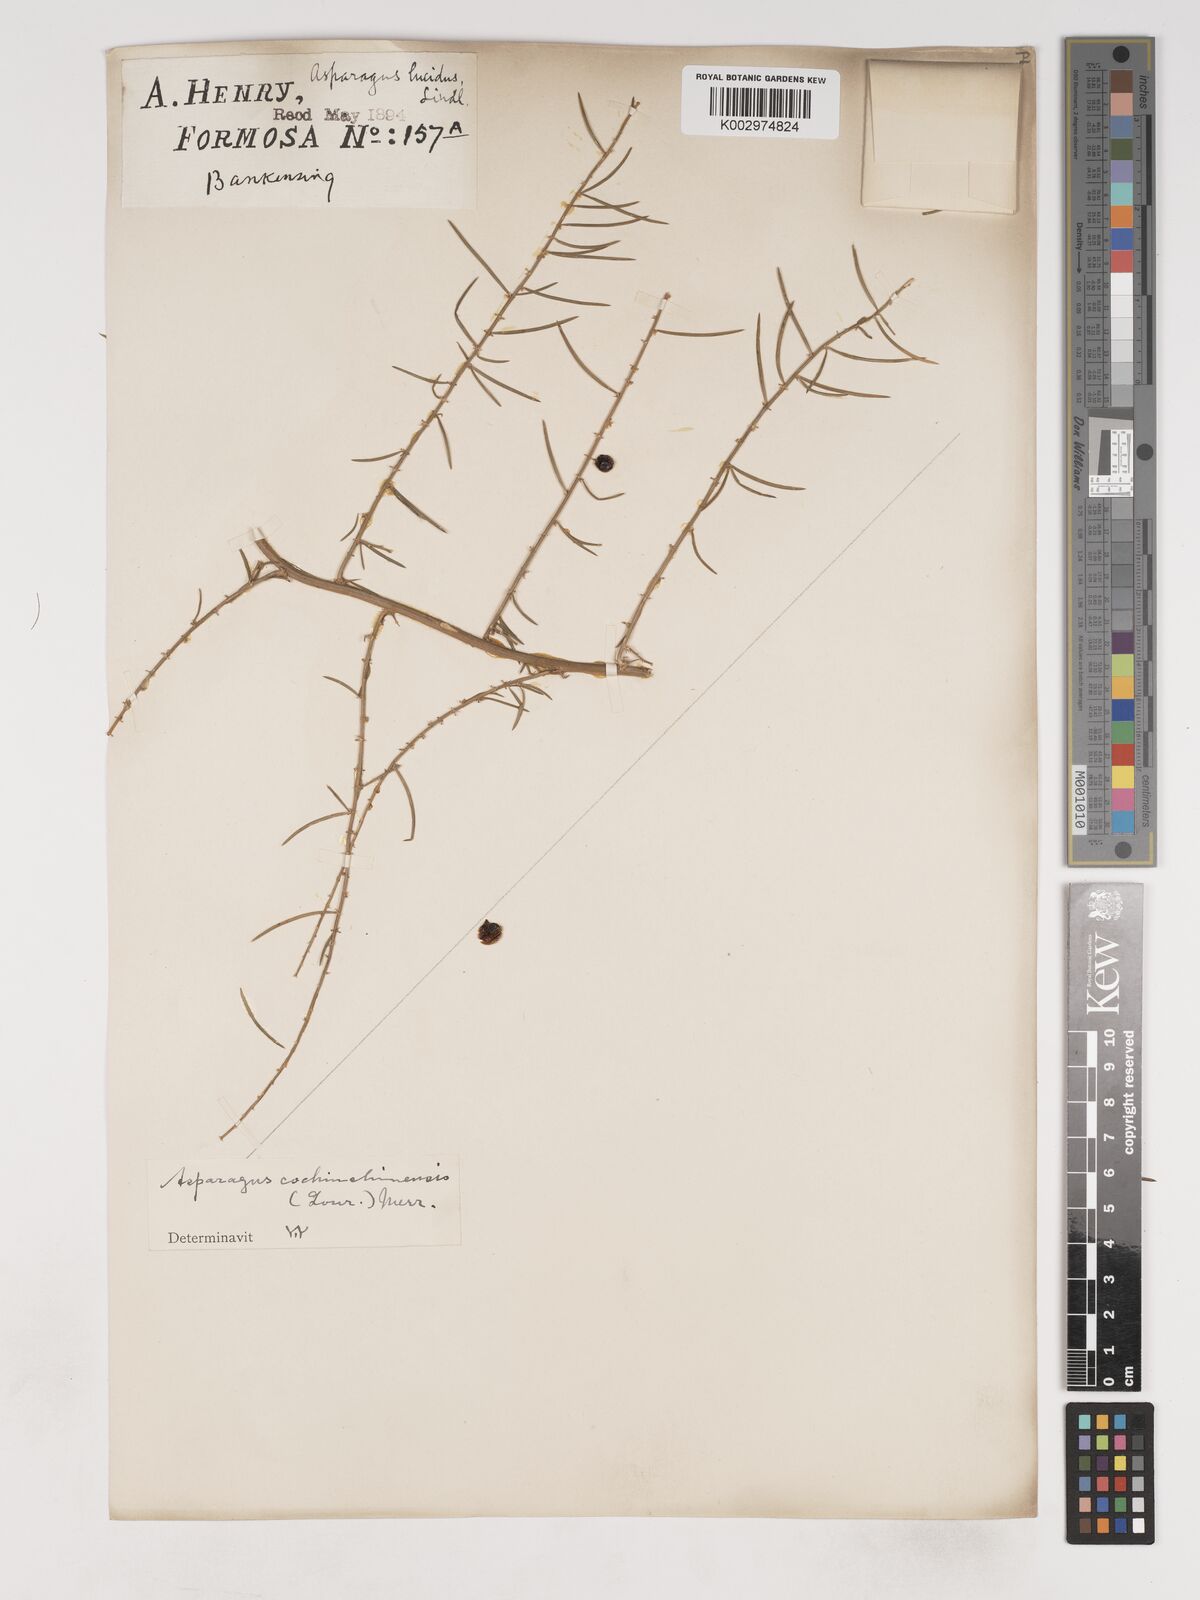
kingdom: Plantae
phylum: Tracheophyta
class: Liliopsida
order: Asparagales
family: Asparagaceae
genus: Asparagus
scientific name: Asparagus cochinchinensis
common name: Chinese asparagus
